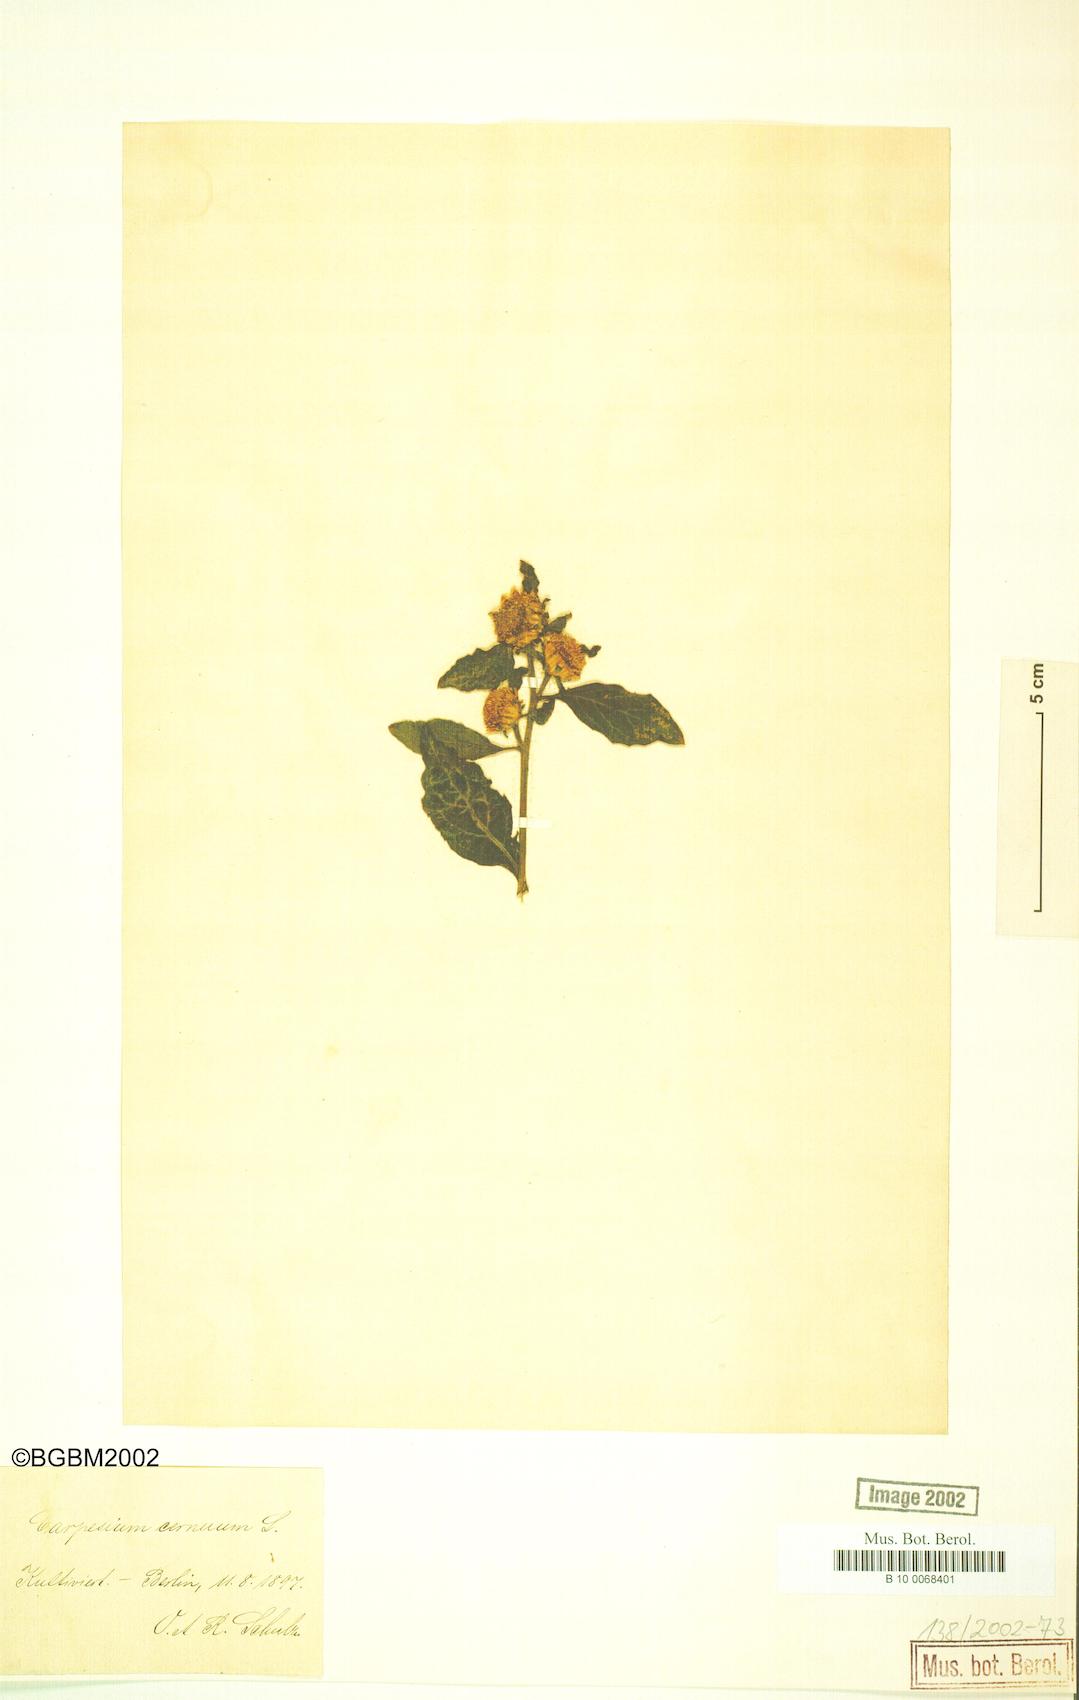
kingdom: Plantae
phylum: Tracheophyta
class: Magnoliopsida
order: Asterales
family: Asteraceae
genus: Carpesium
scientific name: Carpesium cernuum
